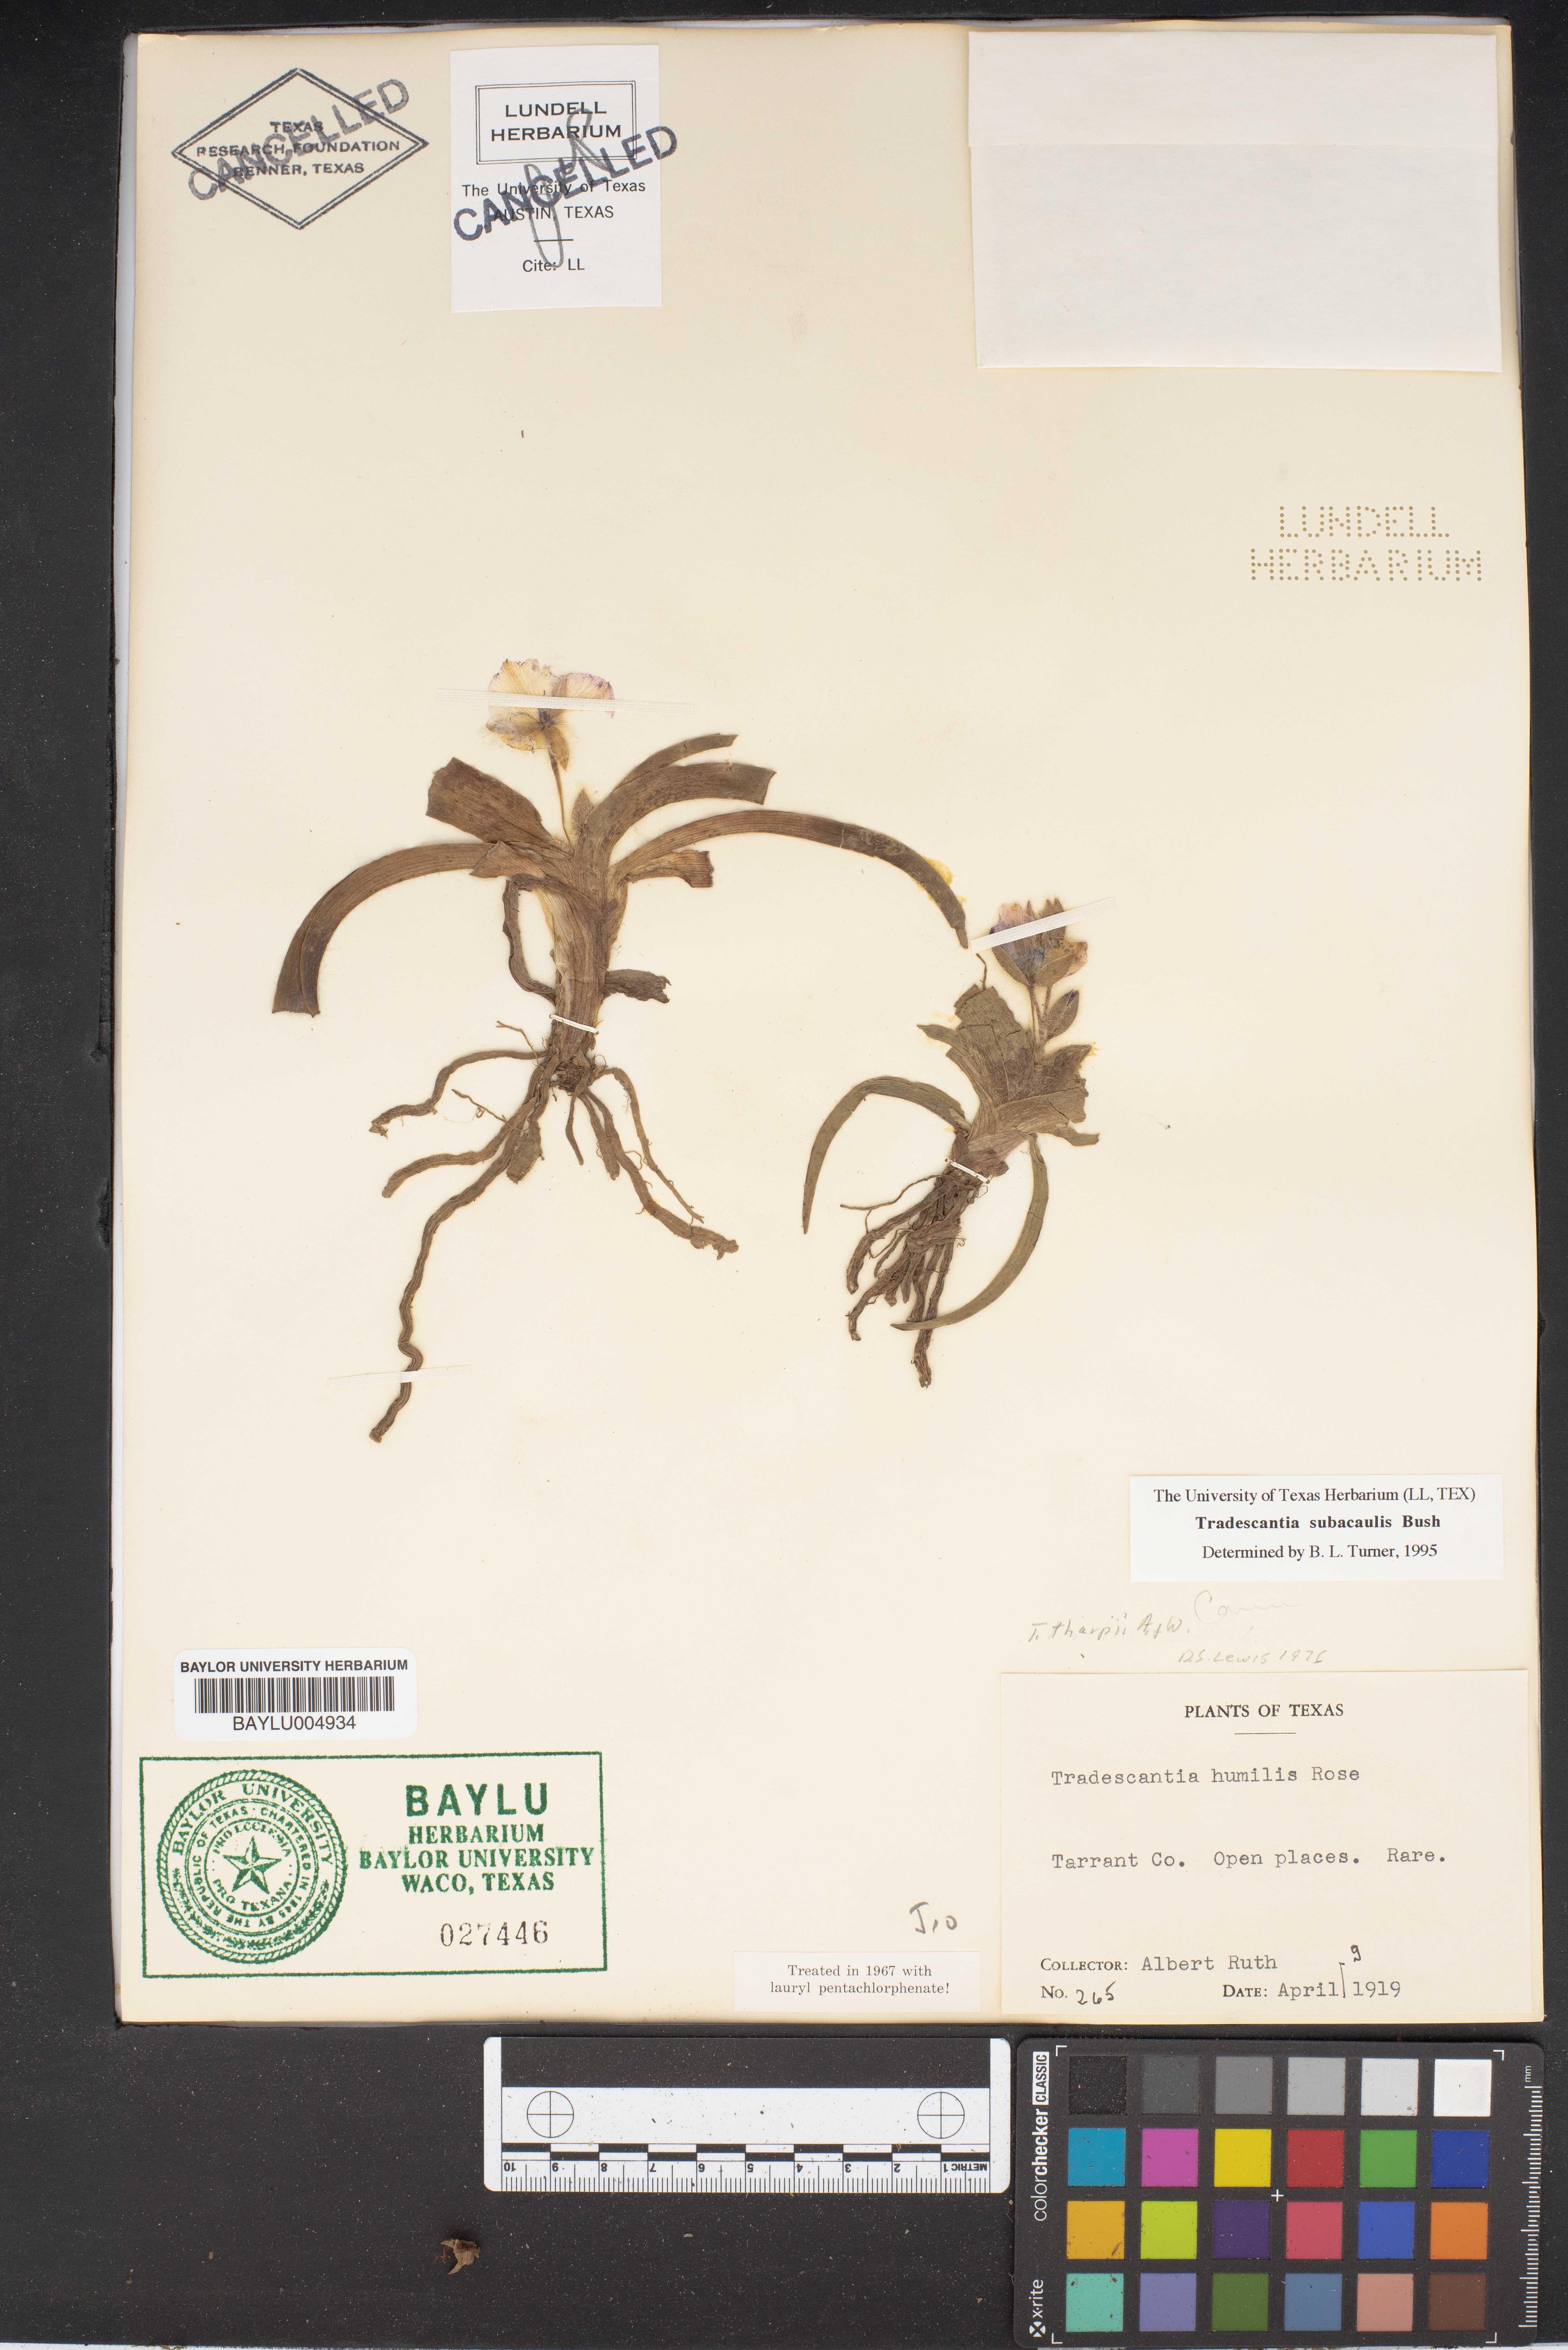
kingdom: Plantae
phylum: Tracheophyta
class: Liliopsida
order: Commelinales
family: Commelinaceae
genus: Tradescantia
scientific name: Tradescantia humilis
